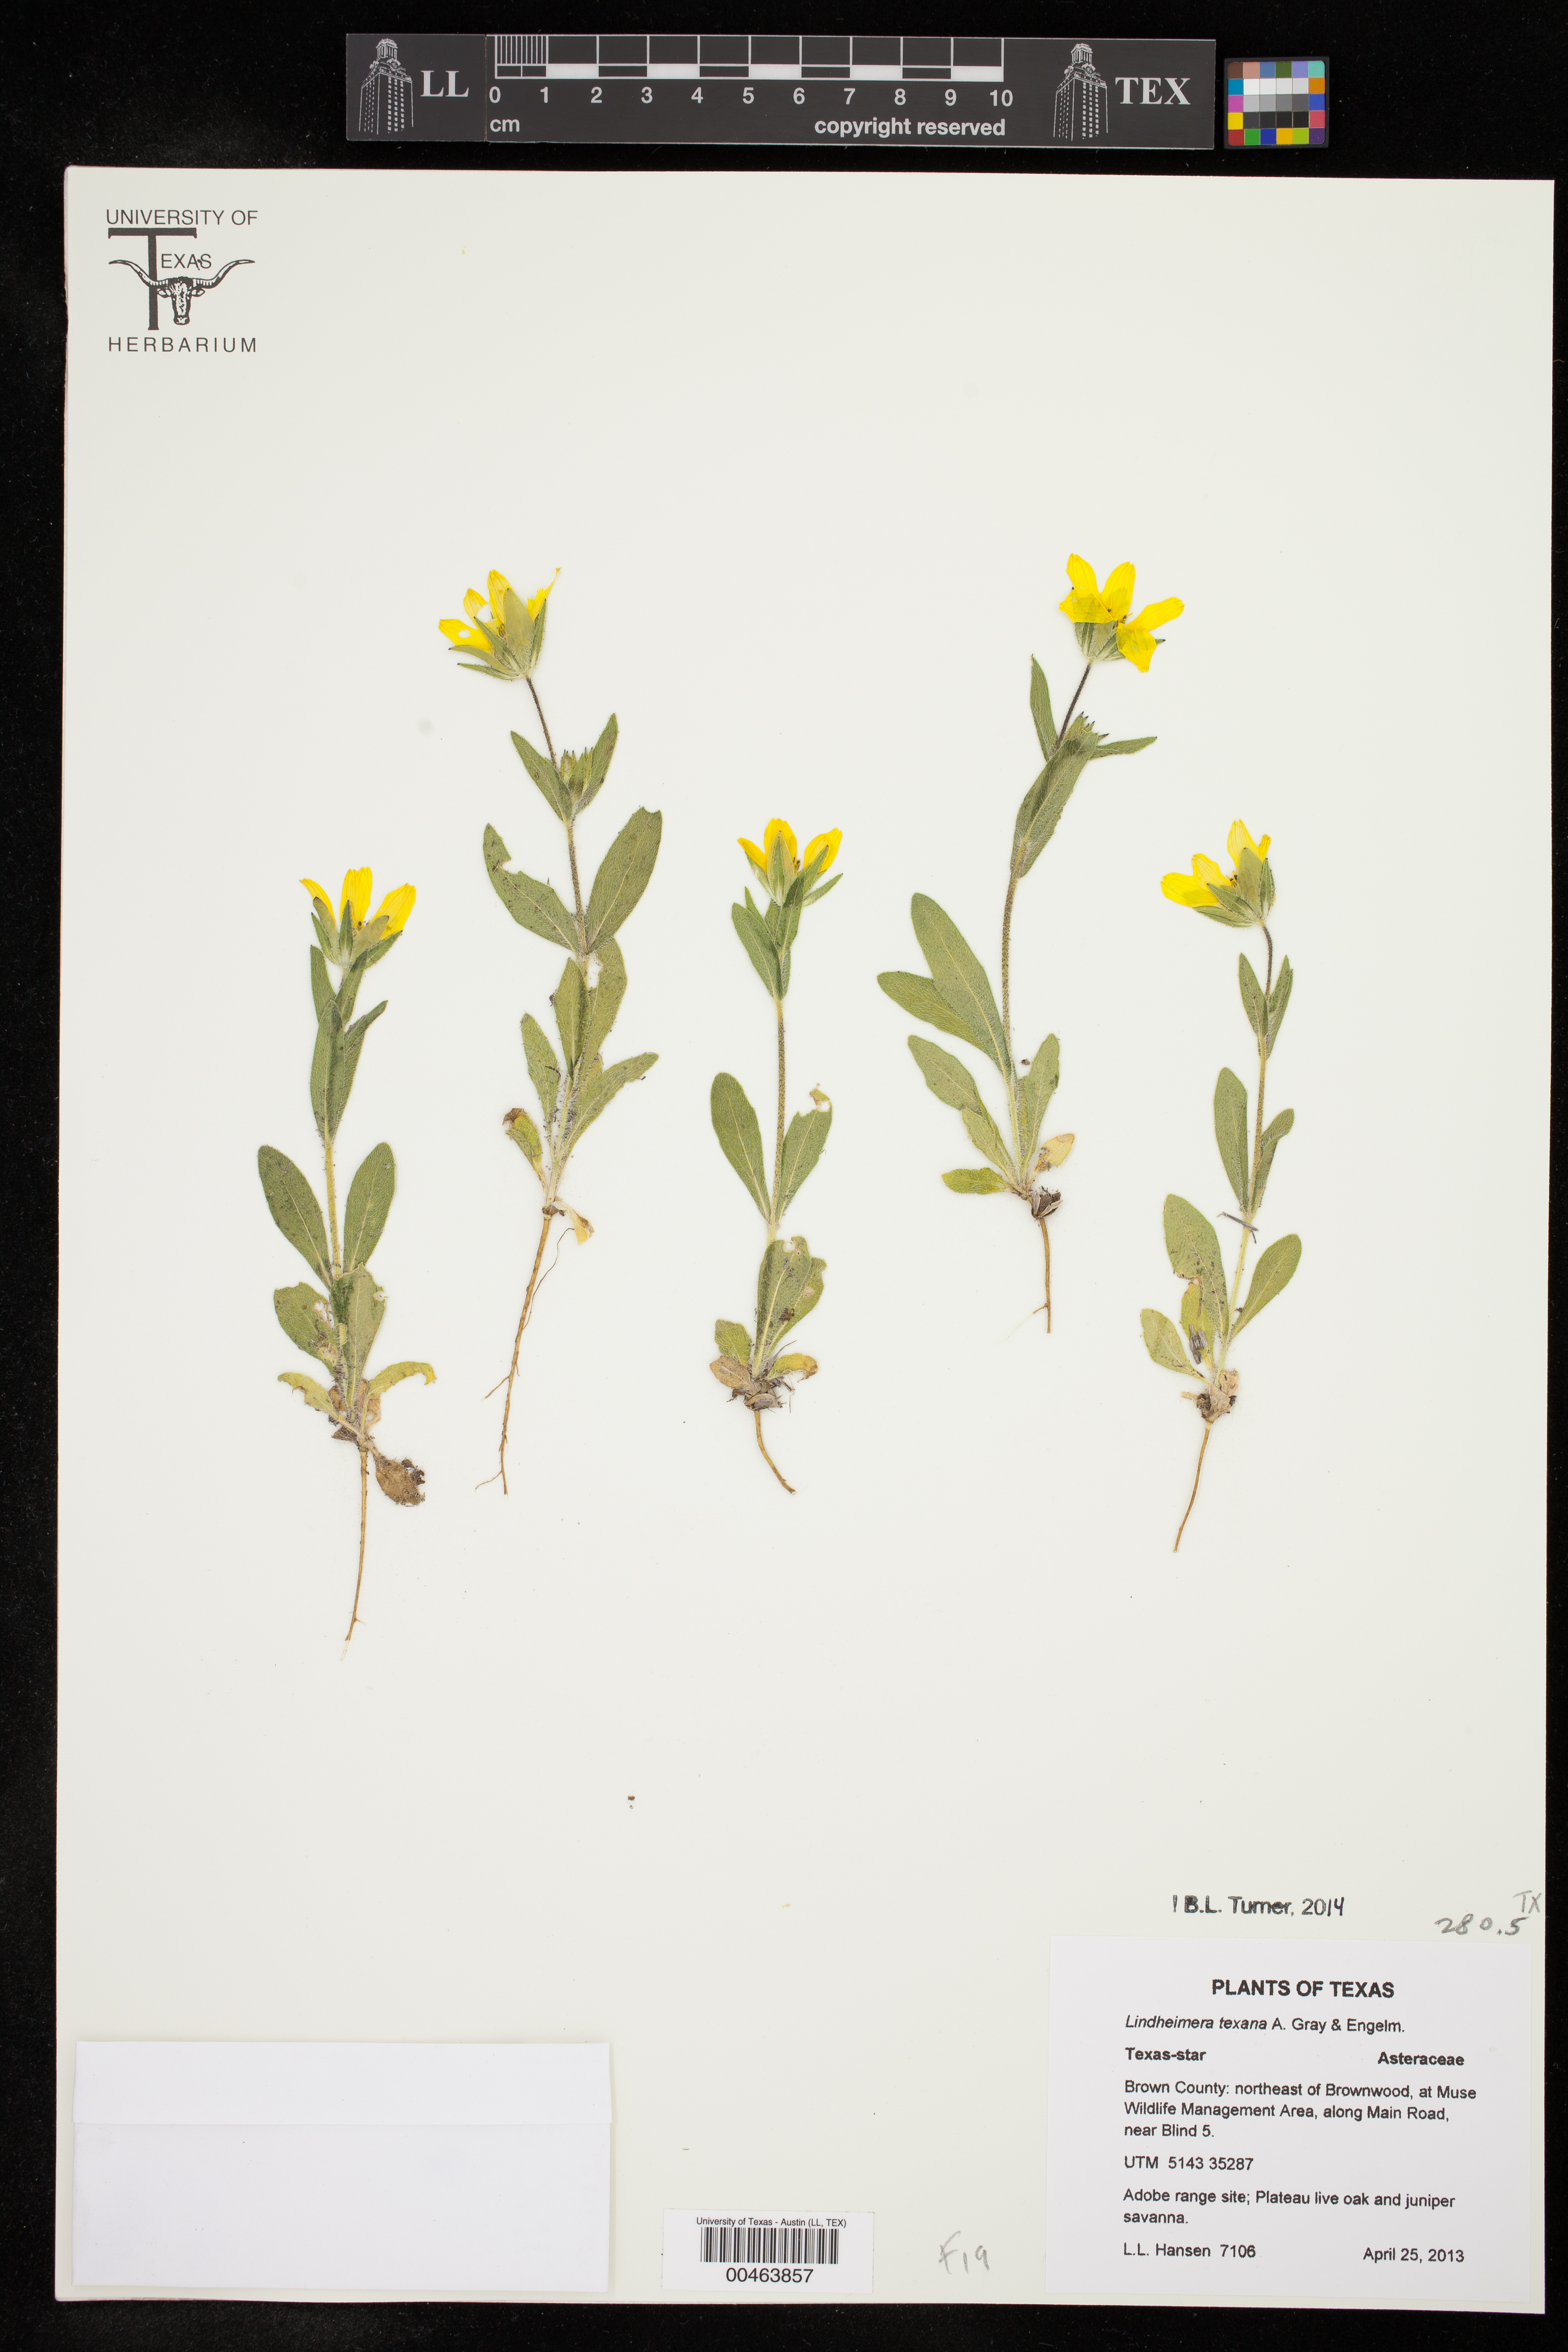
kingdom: Plantae
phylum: Tracheophyta
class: Magnoliopsida
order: Asterales
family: Asteraceae
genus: Lindheimera
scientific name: Lindheimera texana
